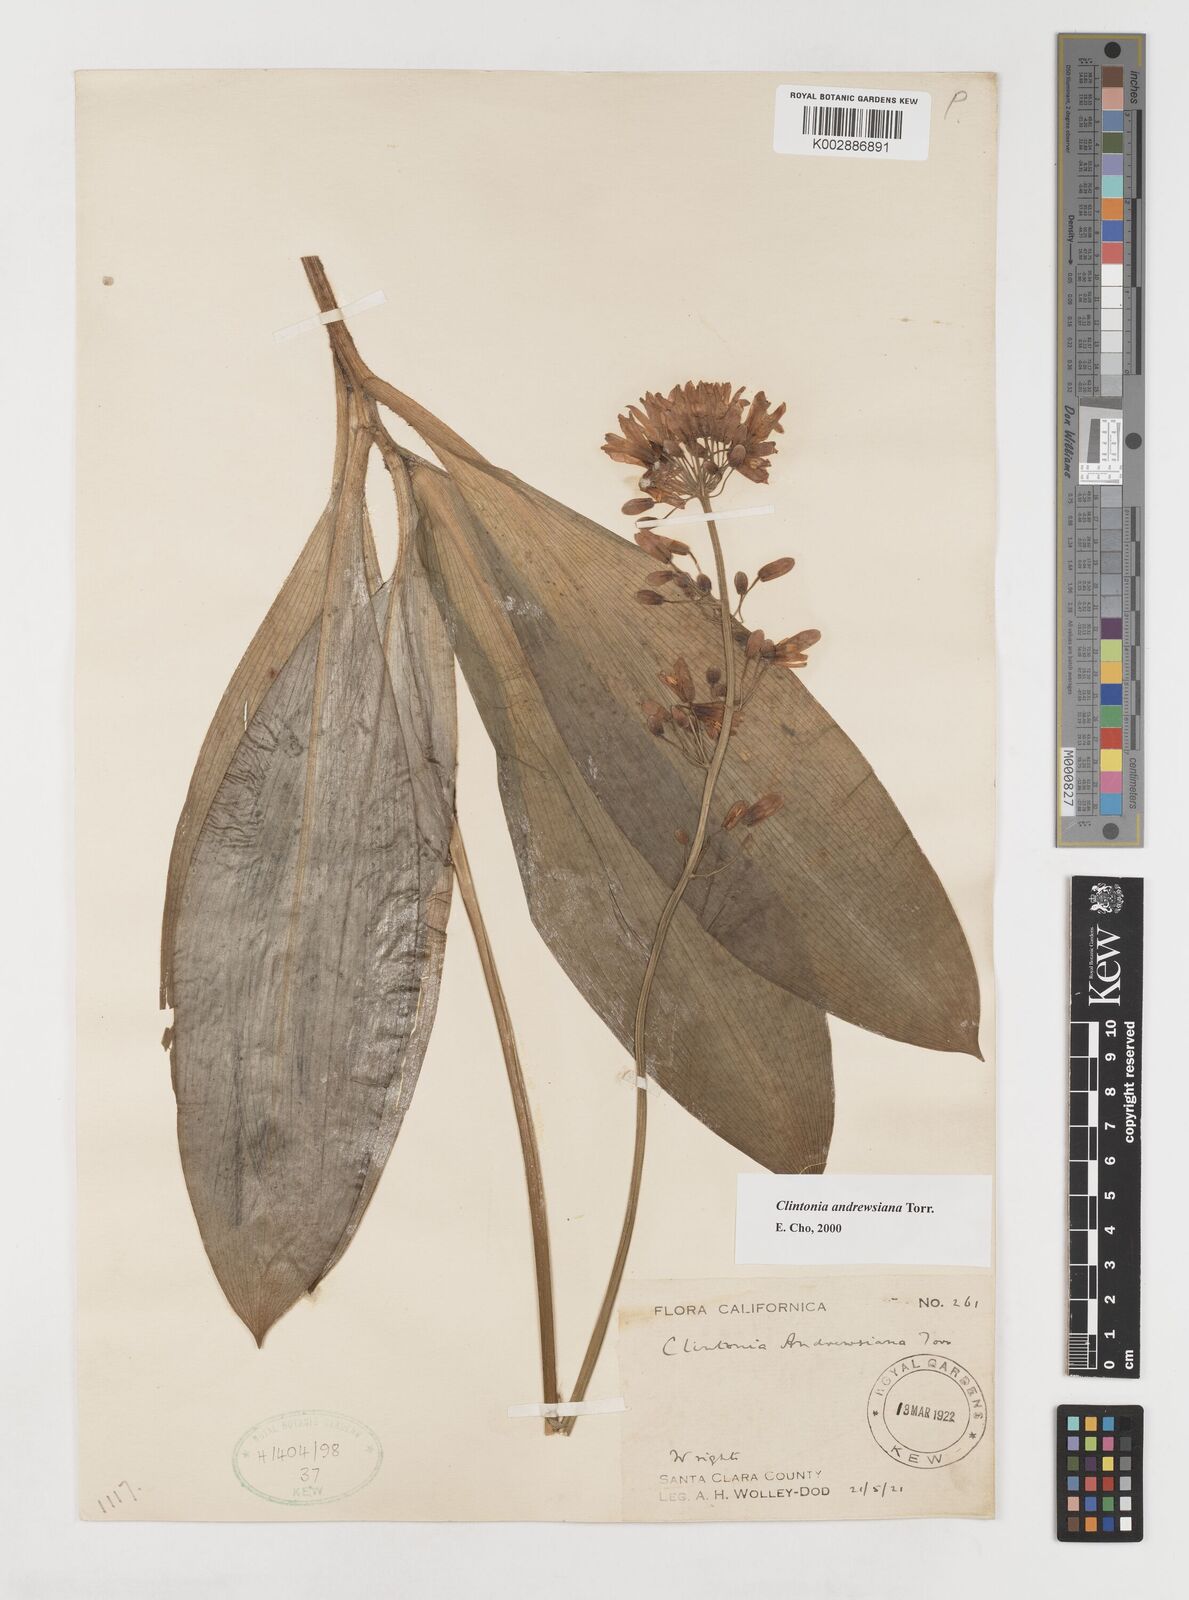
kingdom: Plantae
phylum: Tracheophyta
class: Liliopsida
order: Liliales
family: Liliaceae
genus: Clintonia
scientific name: Clintonia andrewsiana
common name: Red clintonia
